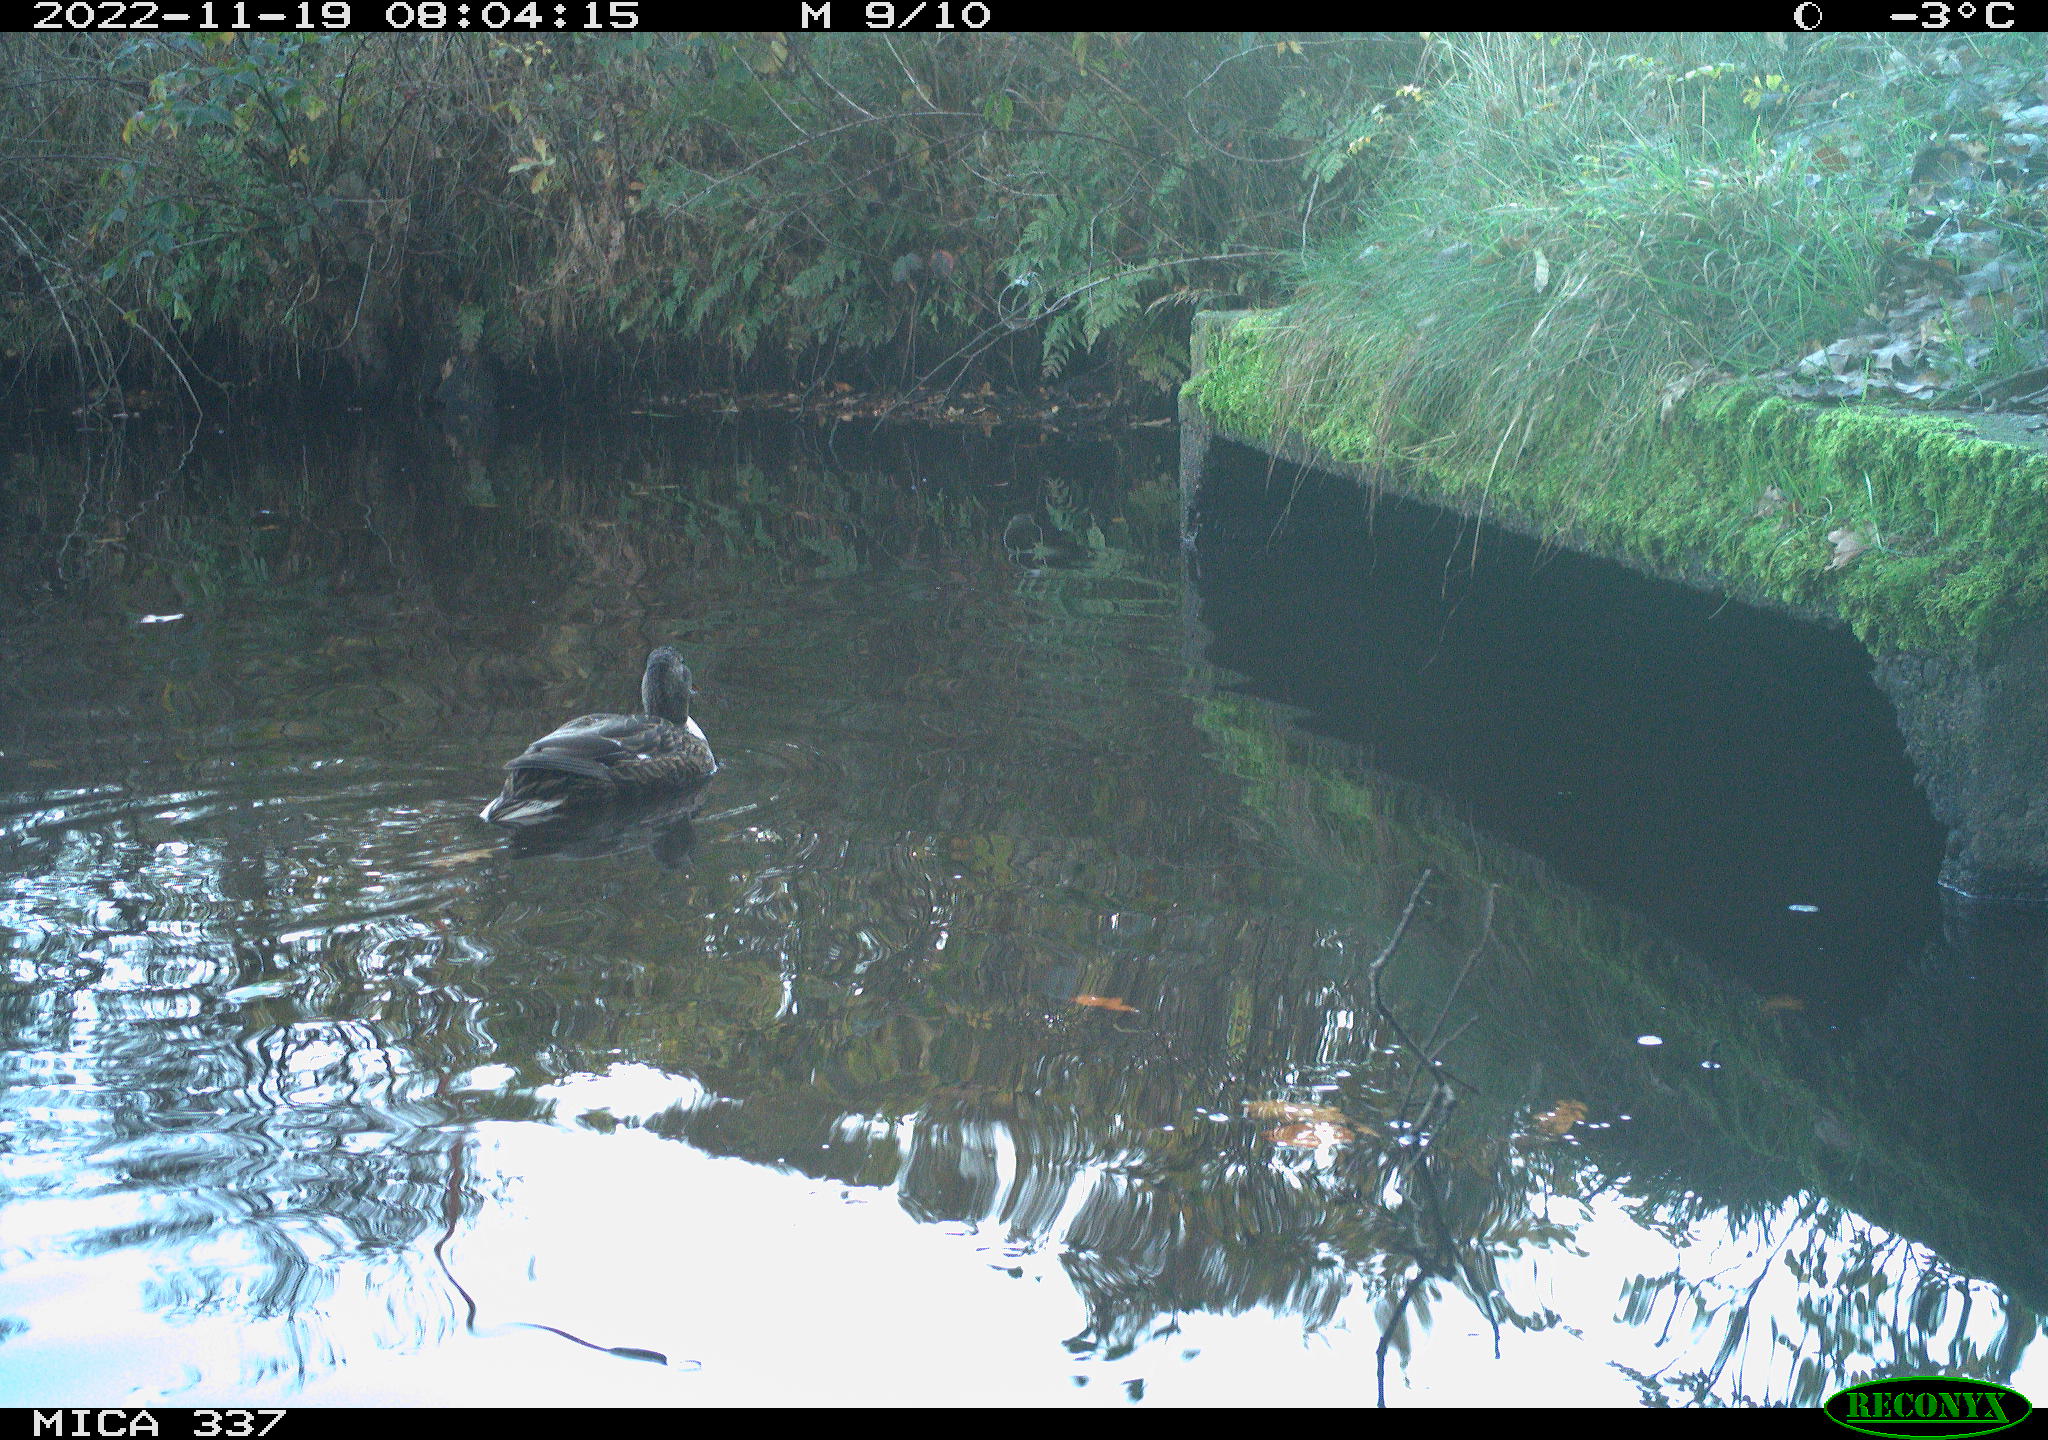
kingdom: Animalia
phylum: Chordata
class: Aves
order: Anseriformes
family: Anatidae
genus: Anas
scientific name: Anas platyrhynchos
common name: Mallard
